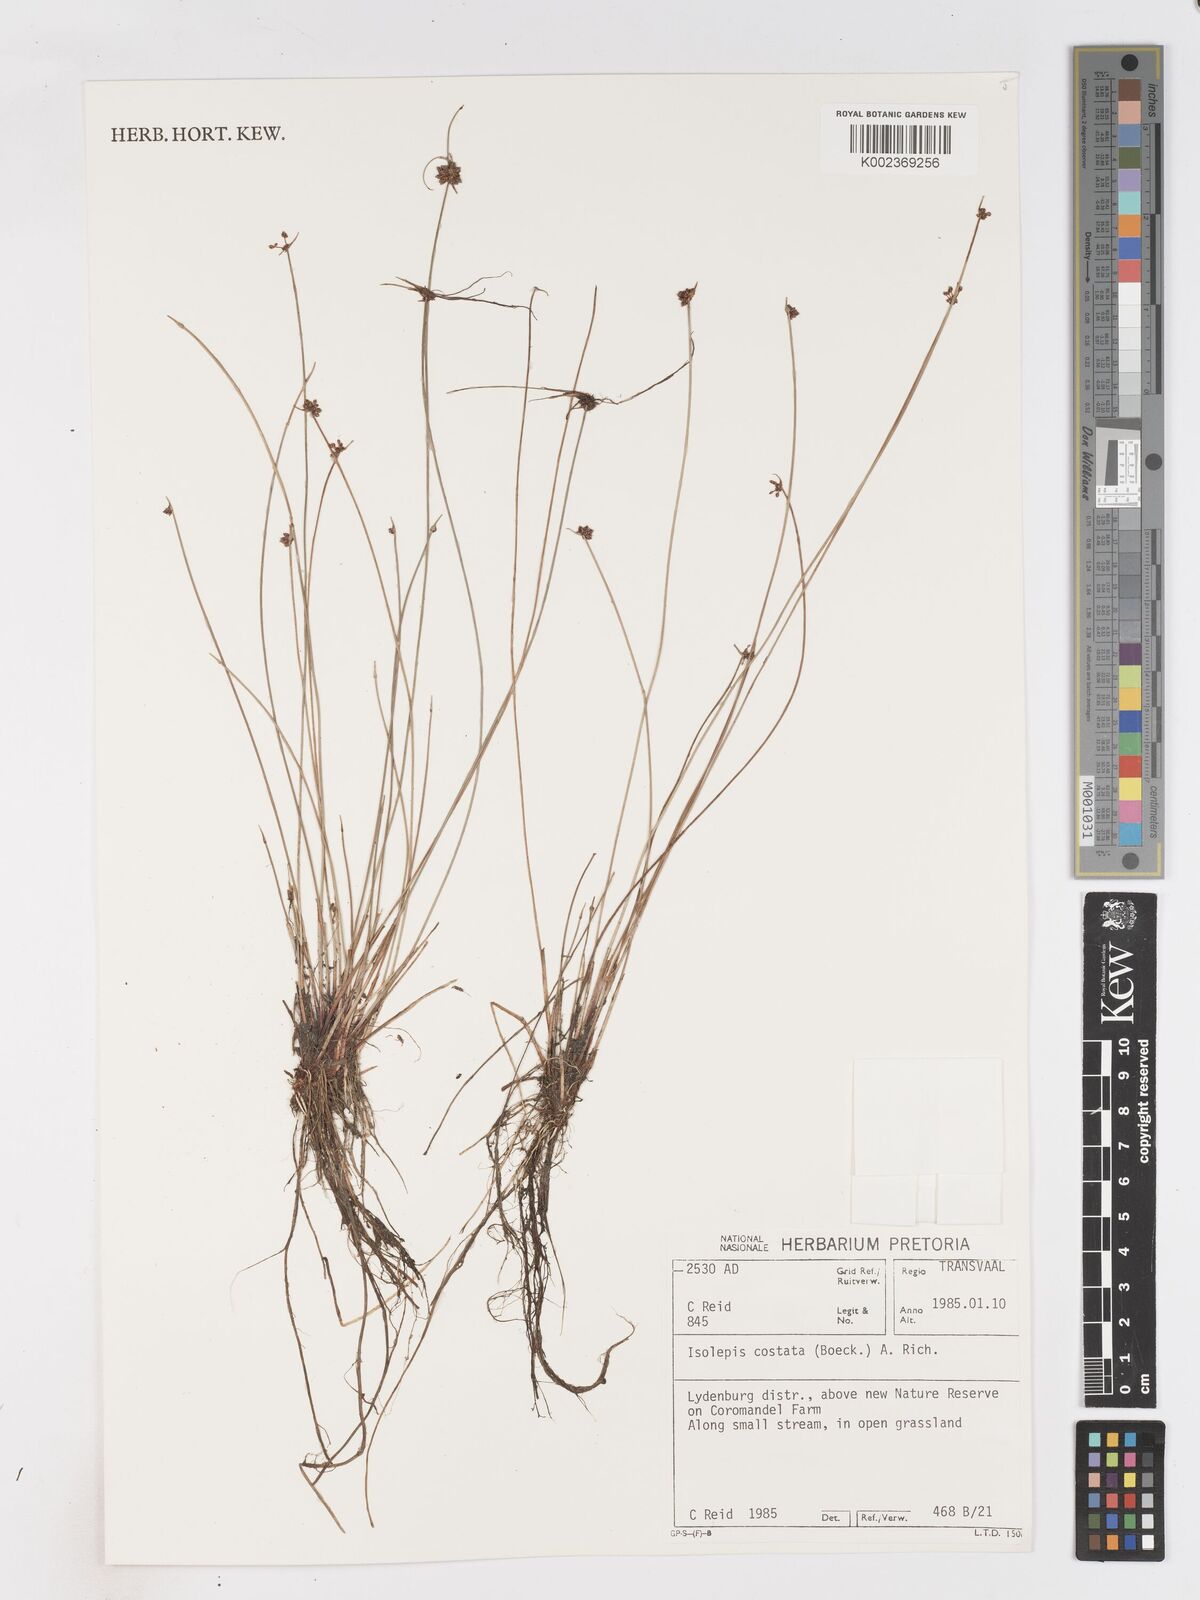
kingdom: Plantae
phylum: Tracheophyta
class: Liliopsida
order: Poales
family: Cyperaceae
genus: Isolepis
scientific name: Isolepis costata
